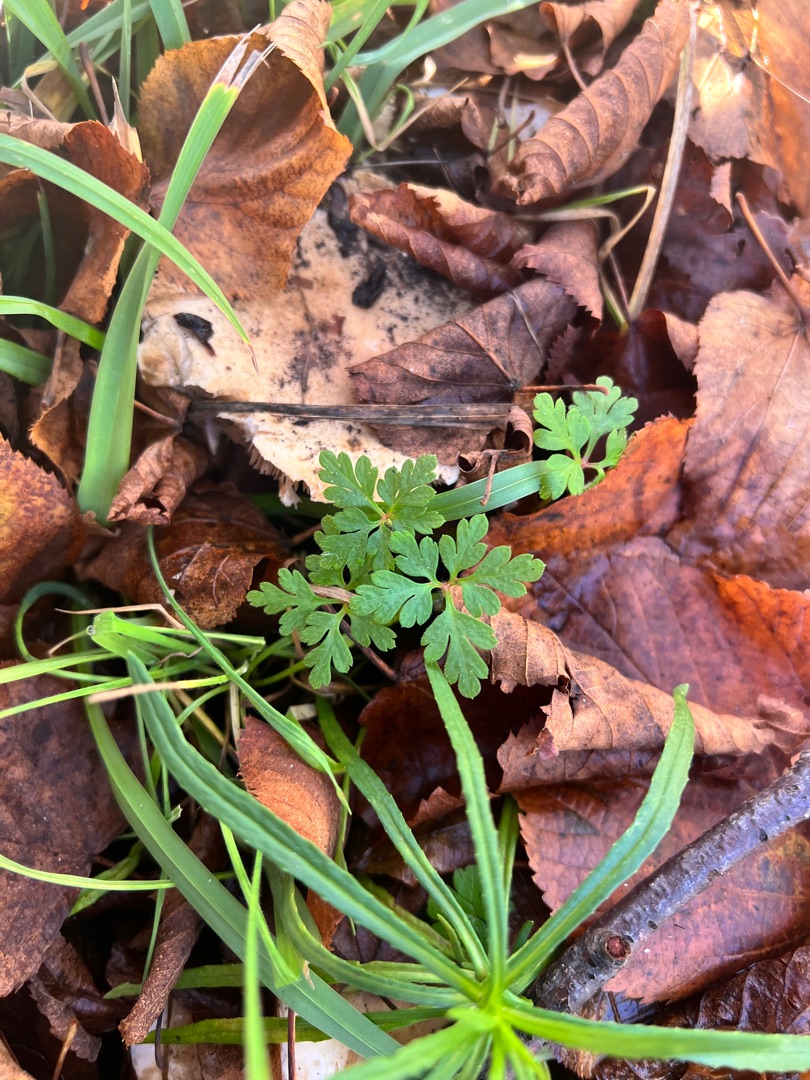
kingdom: Plantae
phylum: Tracheophyta
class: Magnoliopsida
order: Geraniales
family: Geraniaceae
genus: Geranium
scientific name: Geranium robertianum
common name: Stinkende storkenæb
